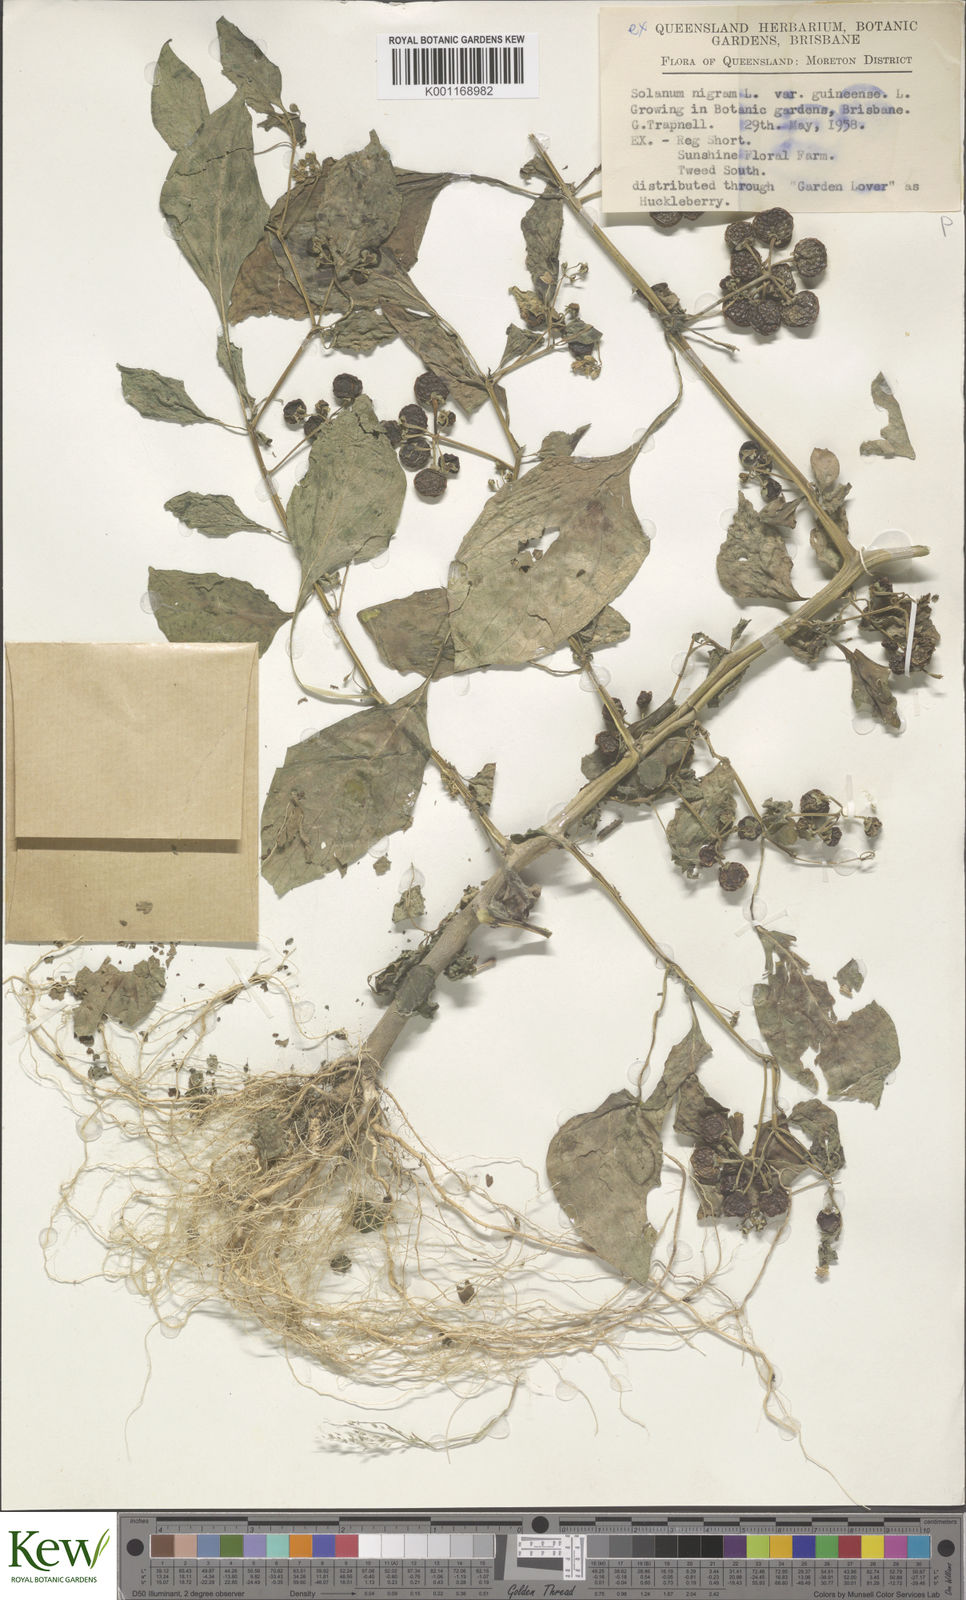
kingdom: Plantae
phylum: Tracheophyta
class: Magnoliopsida
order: Solanales
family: Solanaceae
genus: Solanum
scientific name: Solanum guineense
